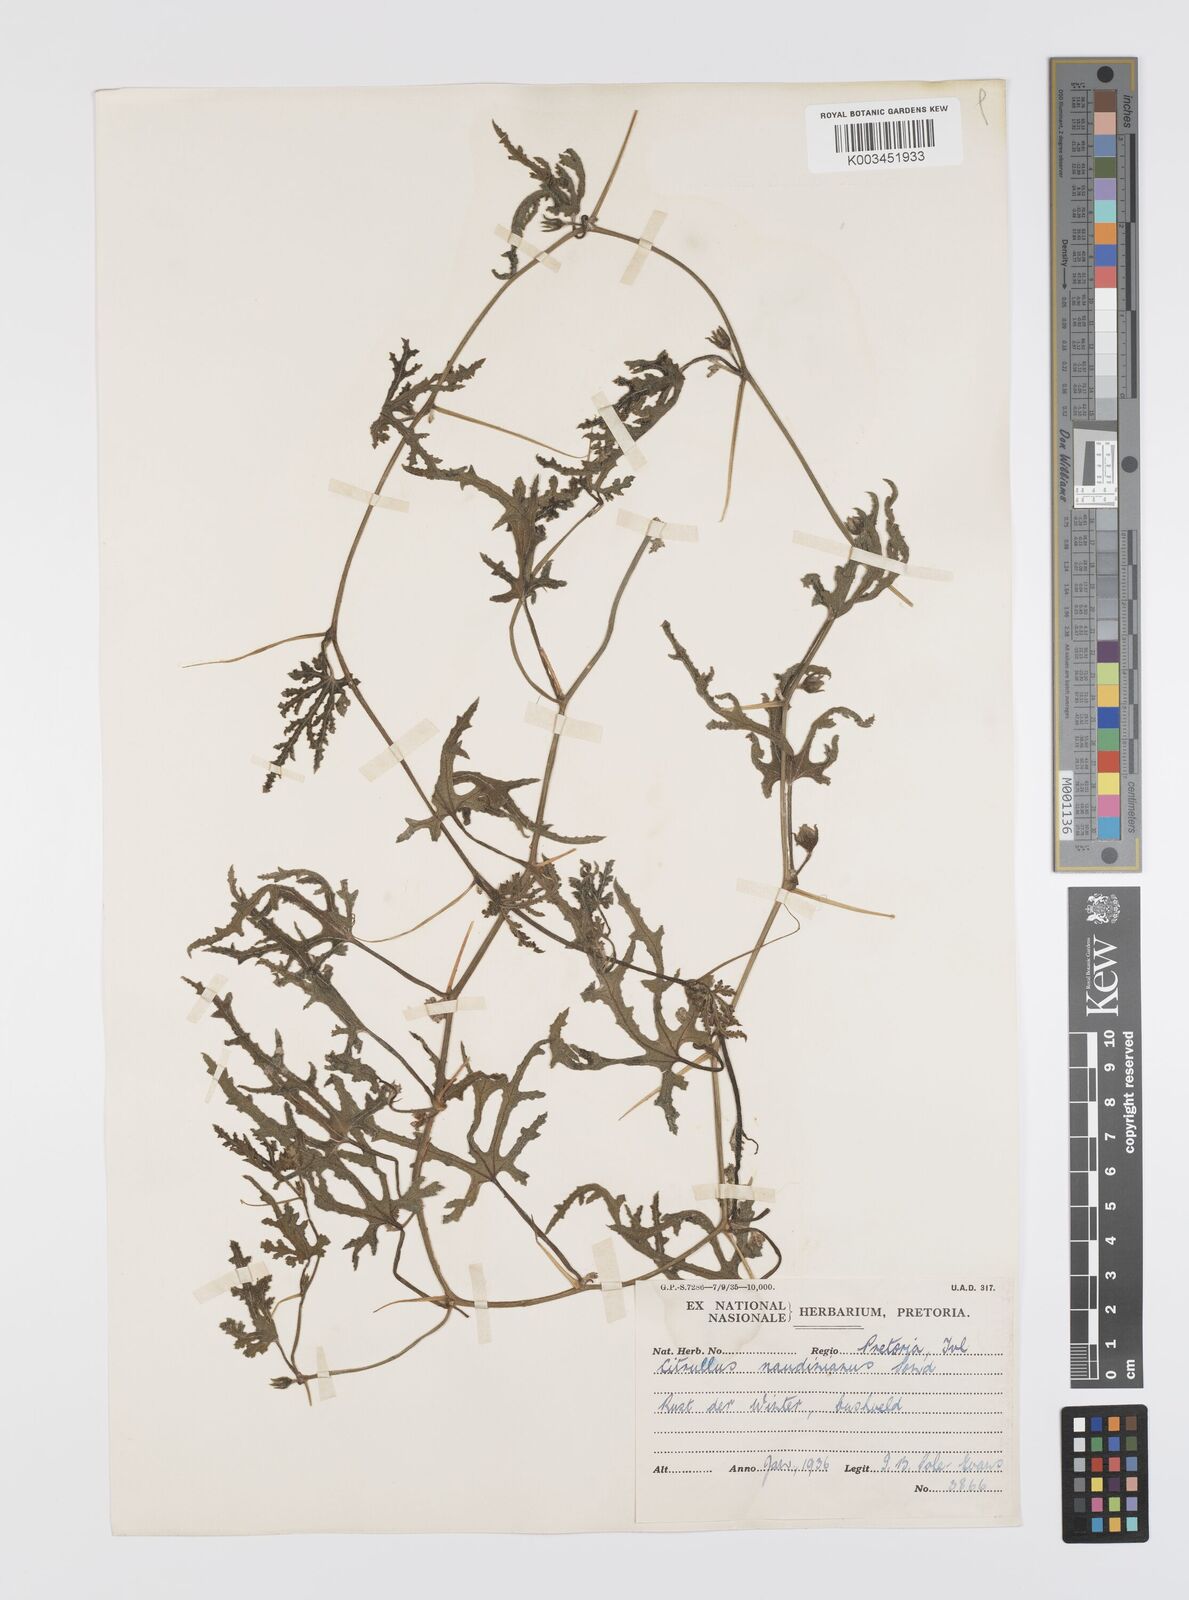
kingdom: Plantae
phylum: Tracheophyta
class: Magnoliopsida
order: Cucurbitales
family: Cucurbitaceae
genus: Citrullus
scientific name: Citrullus naudinianus
